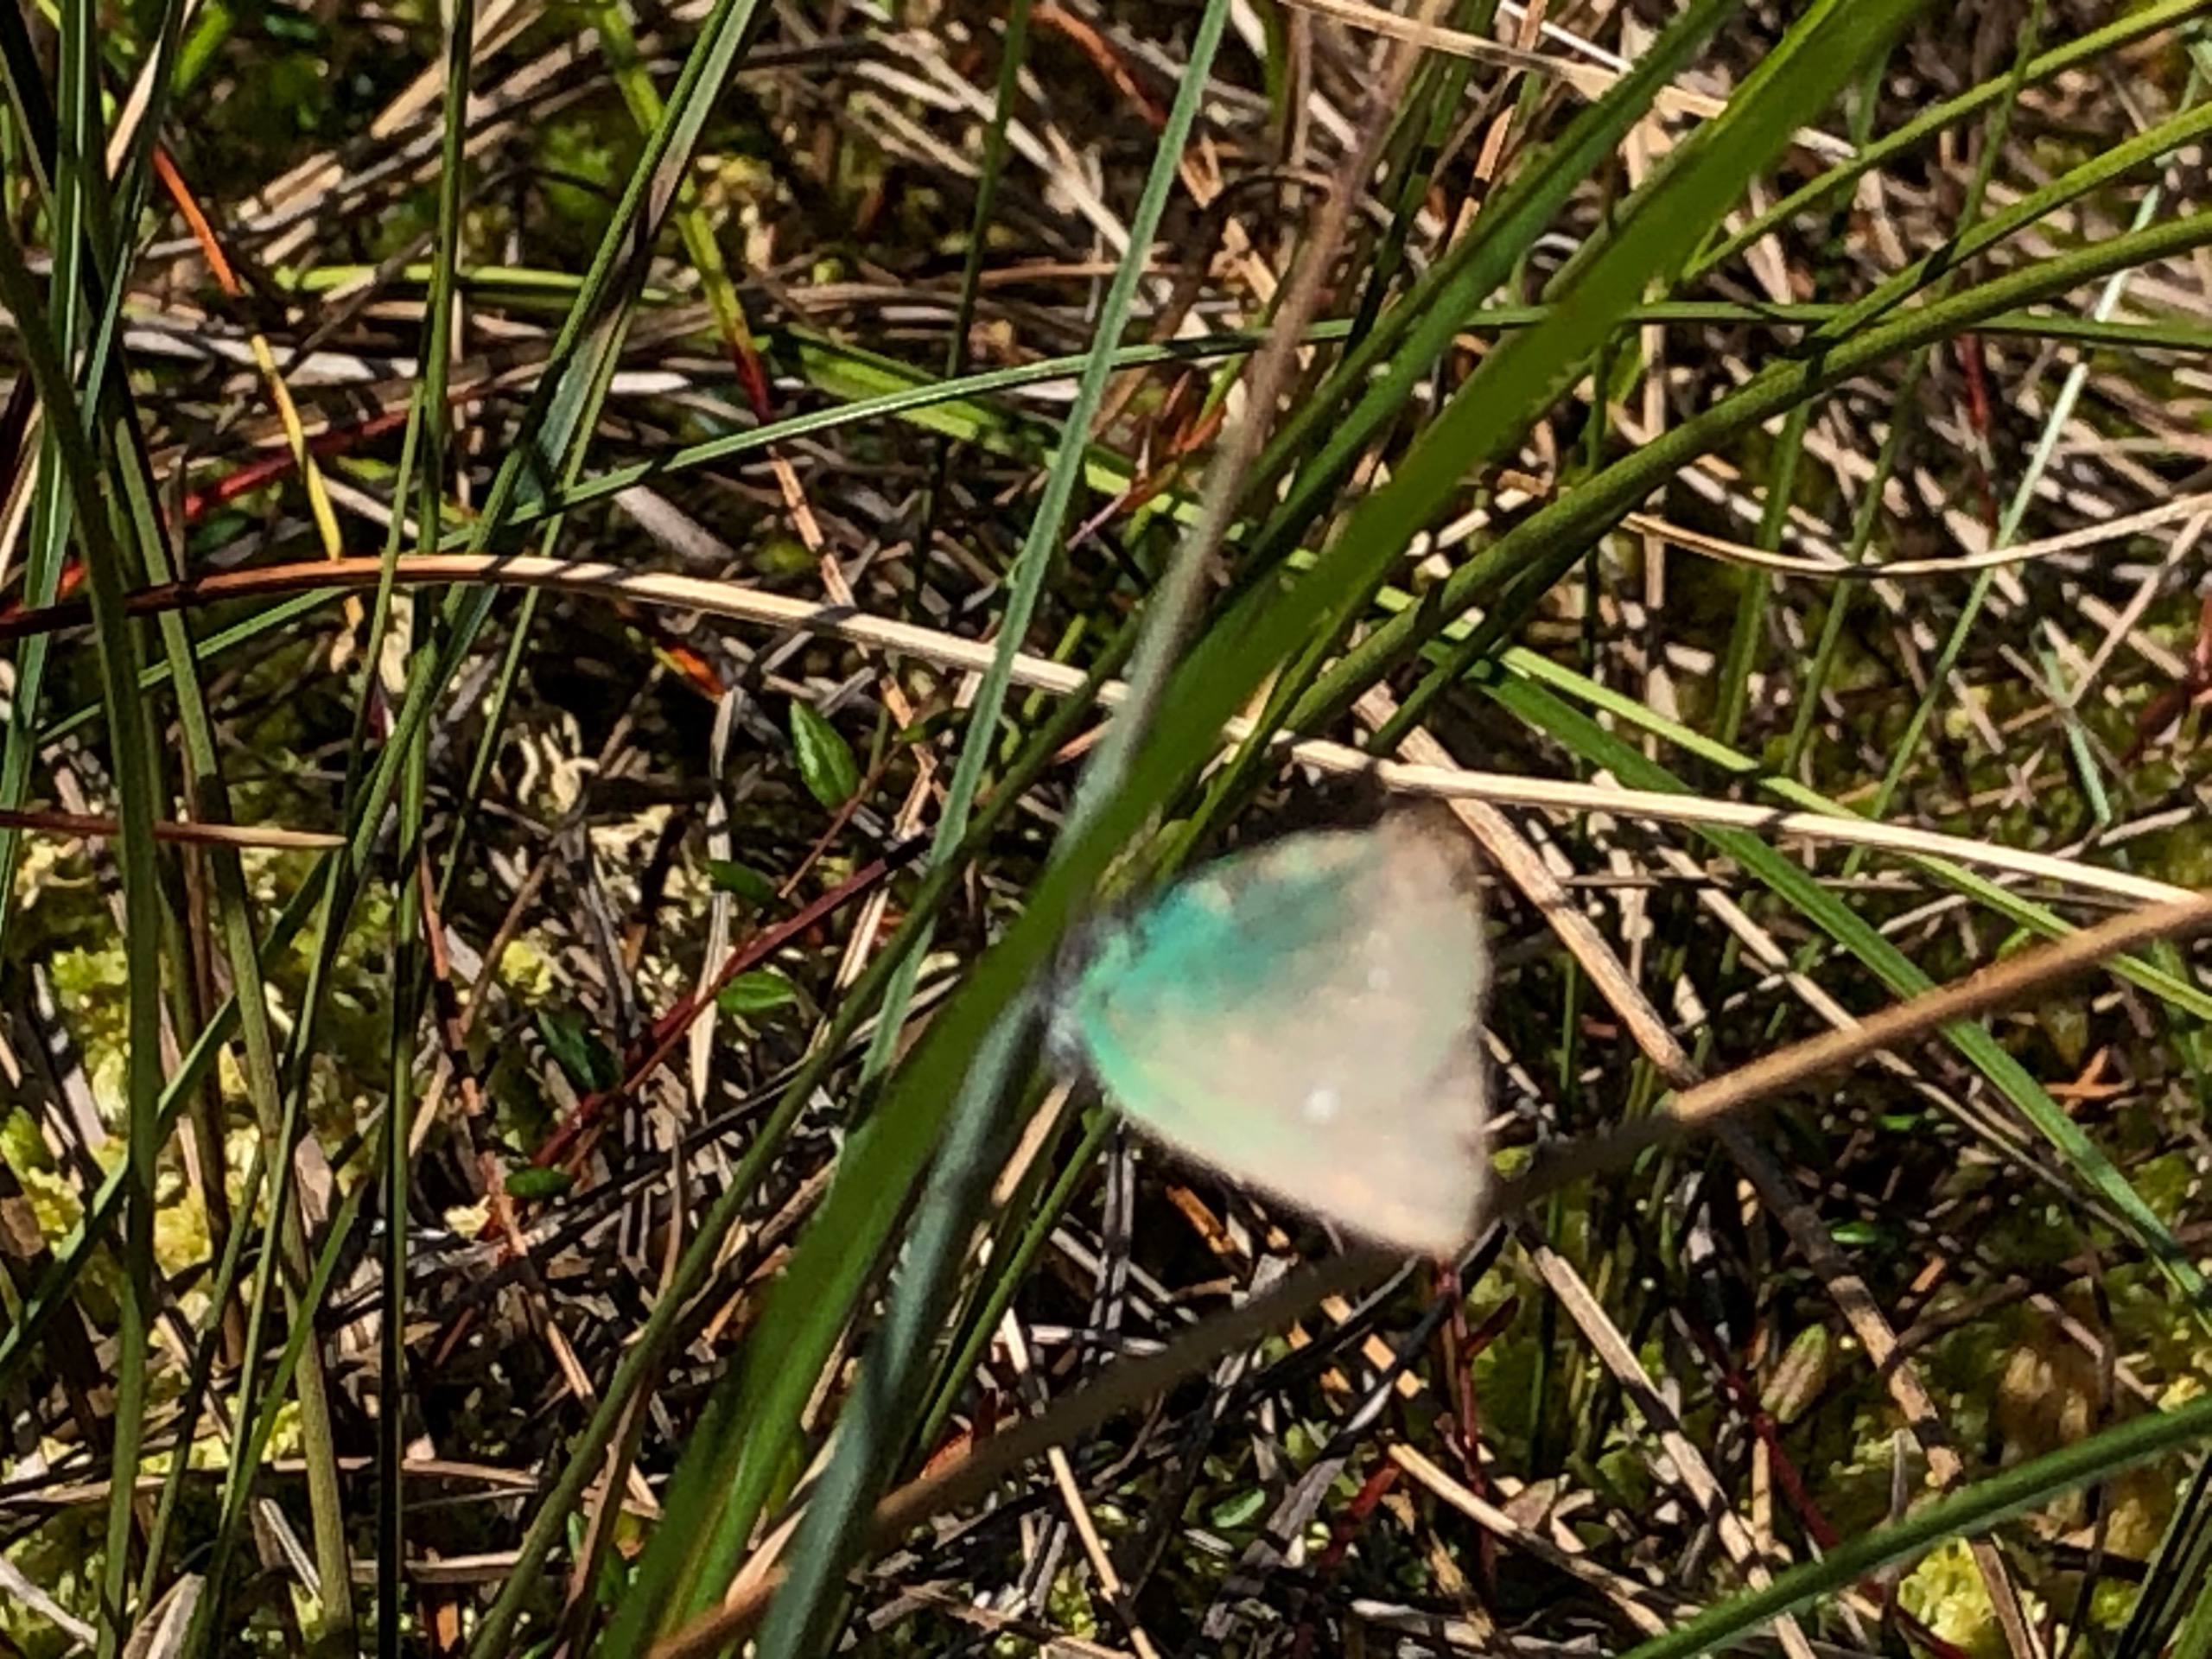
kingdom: Animalia
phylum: Arthropoda
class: Insecta
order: Lepidoptera
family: Lycaenidae
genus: Callophrys
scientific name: Callophrys rubi
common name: Grøn busksommerfugl
